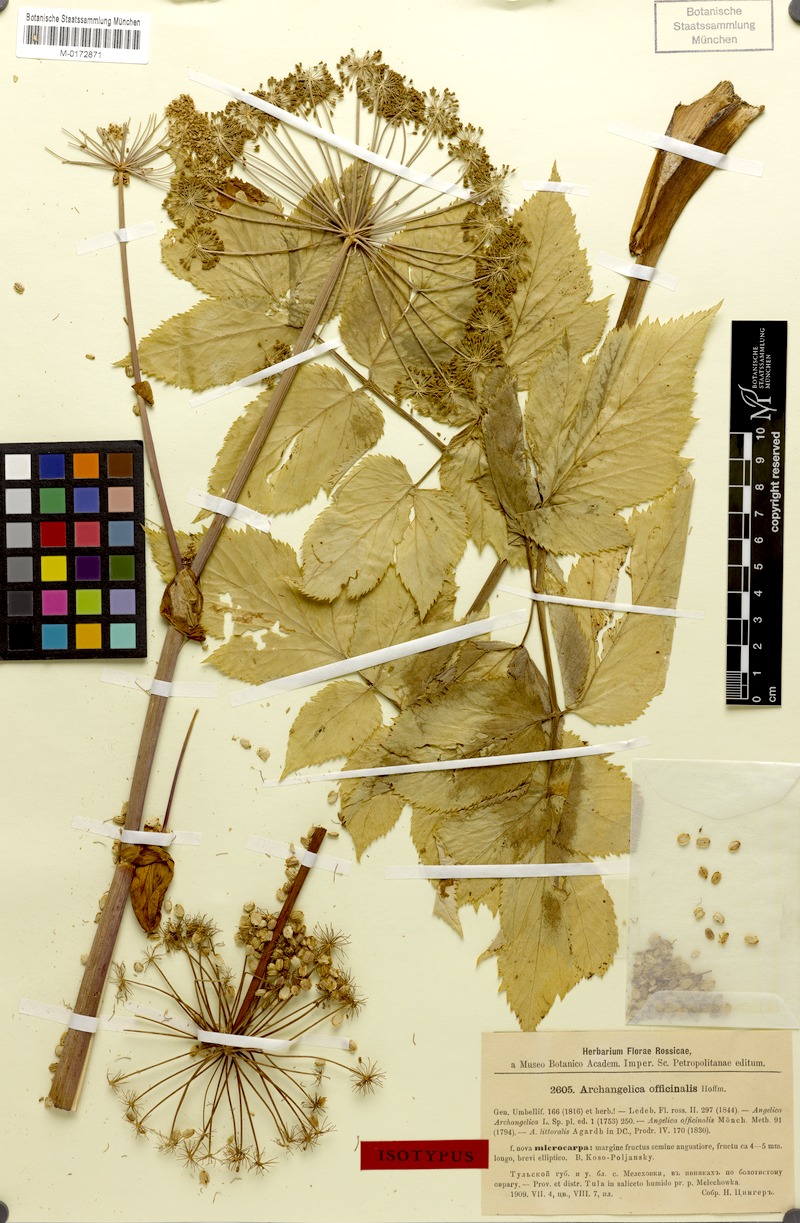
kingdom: Plantae
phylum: Tracheophyta
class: Magnoliopsida
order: Apiales
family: Apiaceae
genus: Angelica
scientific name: Angelica archangelica
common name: Garden angelica
